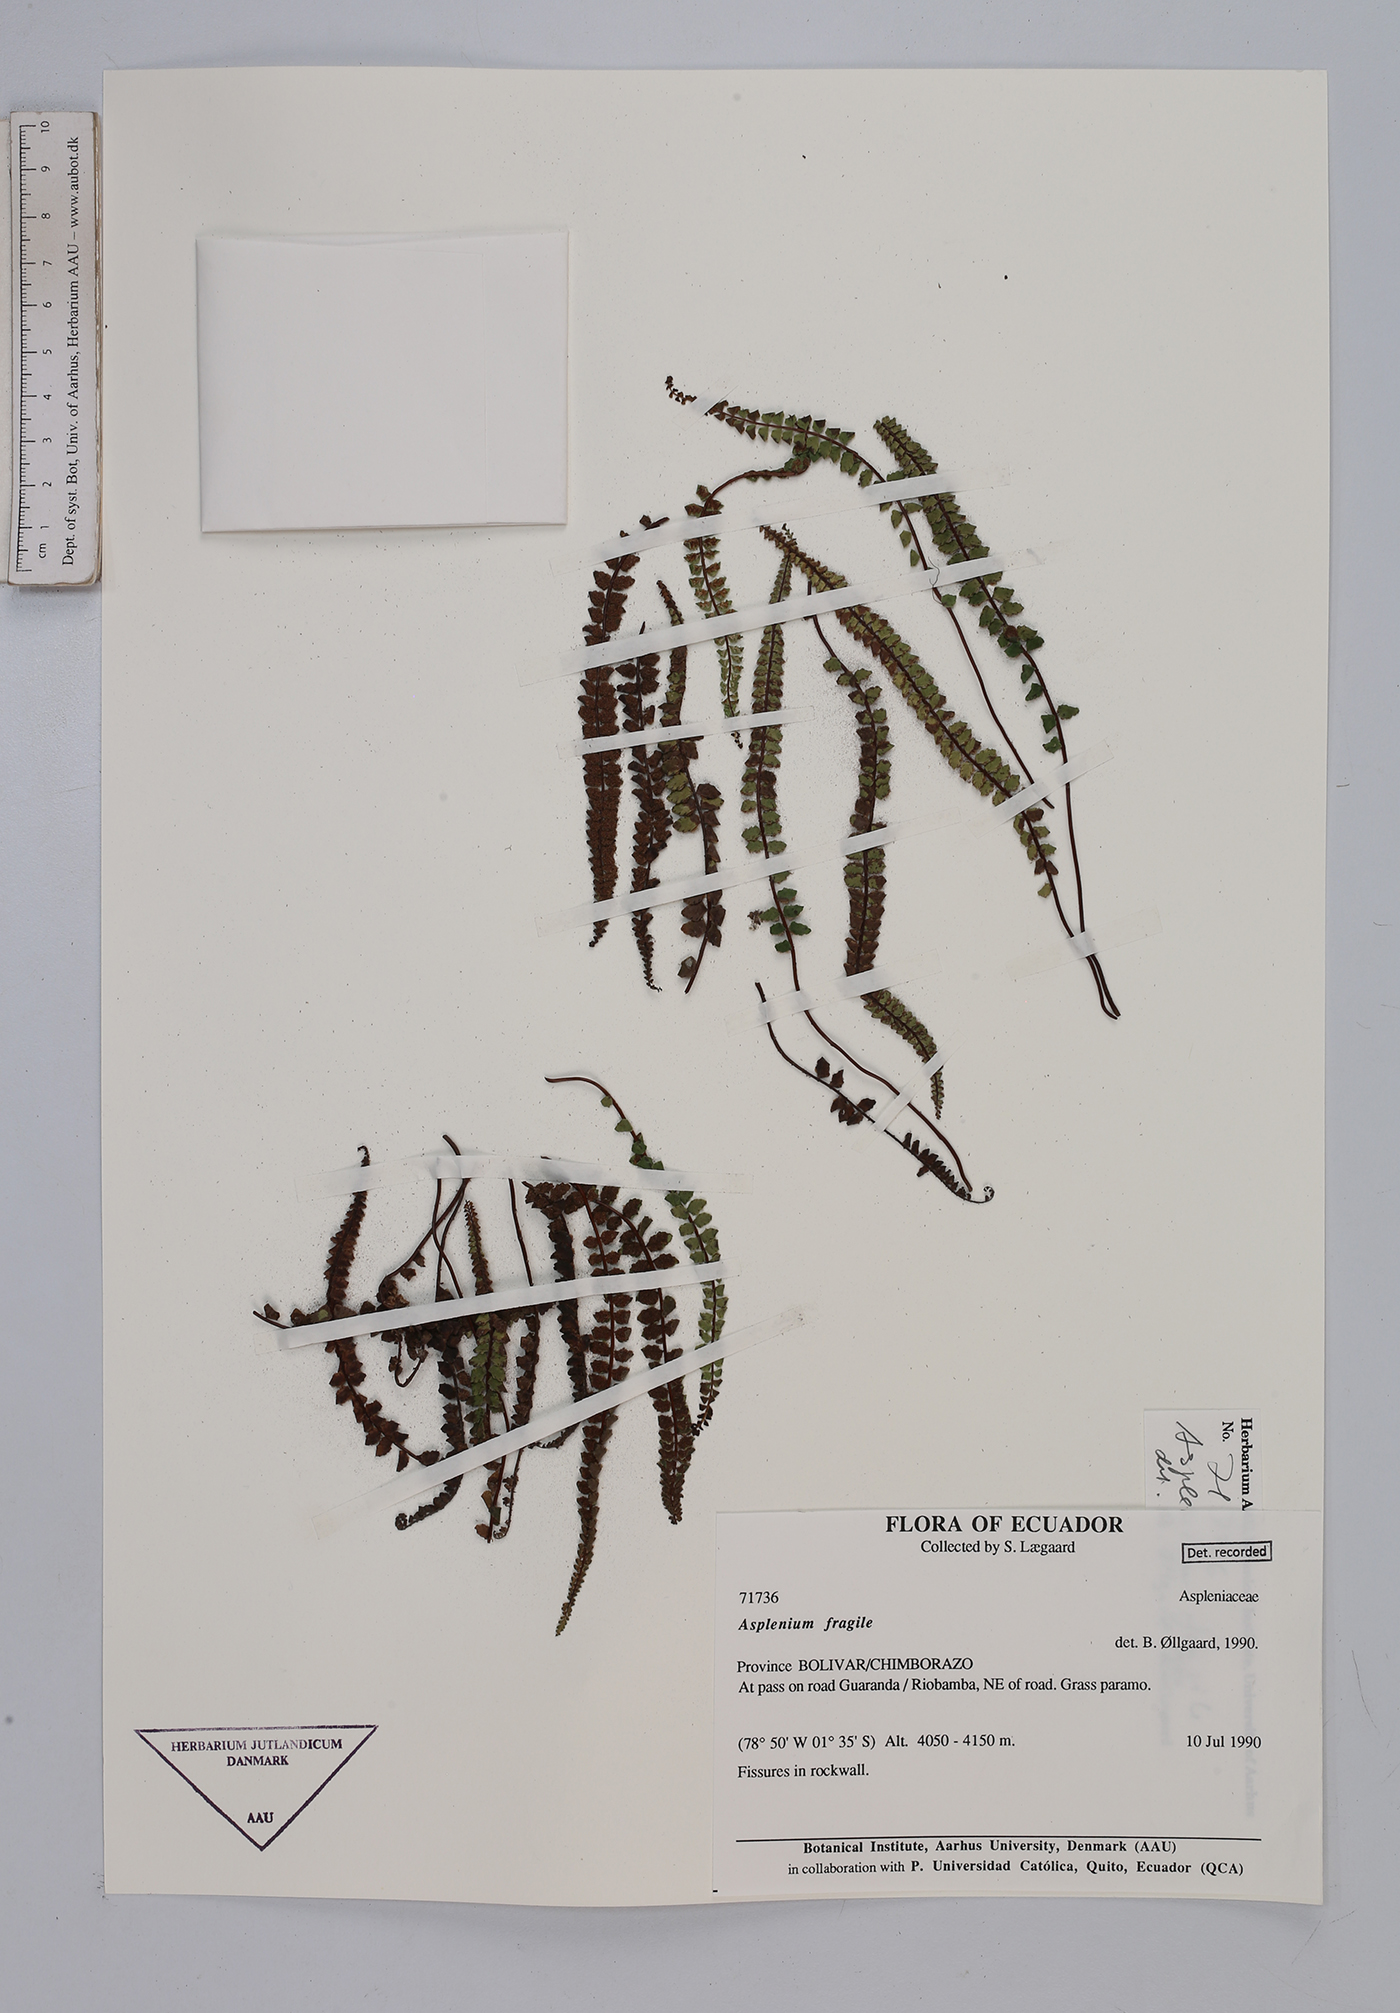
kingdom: Plantae
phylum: Tracheophyta
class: Polypodiopsida
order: Polypodiales
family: Aspleniaceae
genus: Asplenium
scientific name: Asplenium peruvianum
